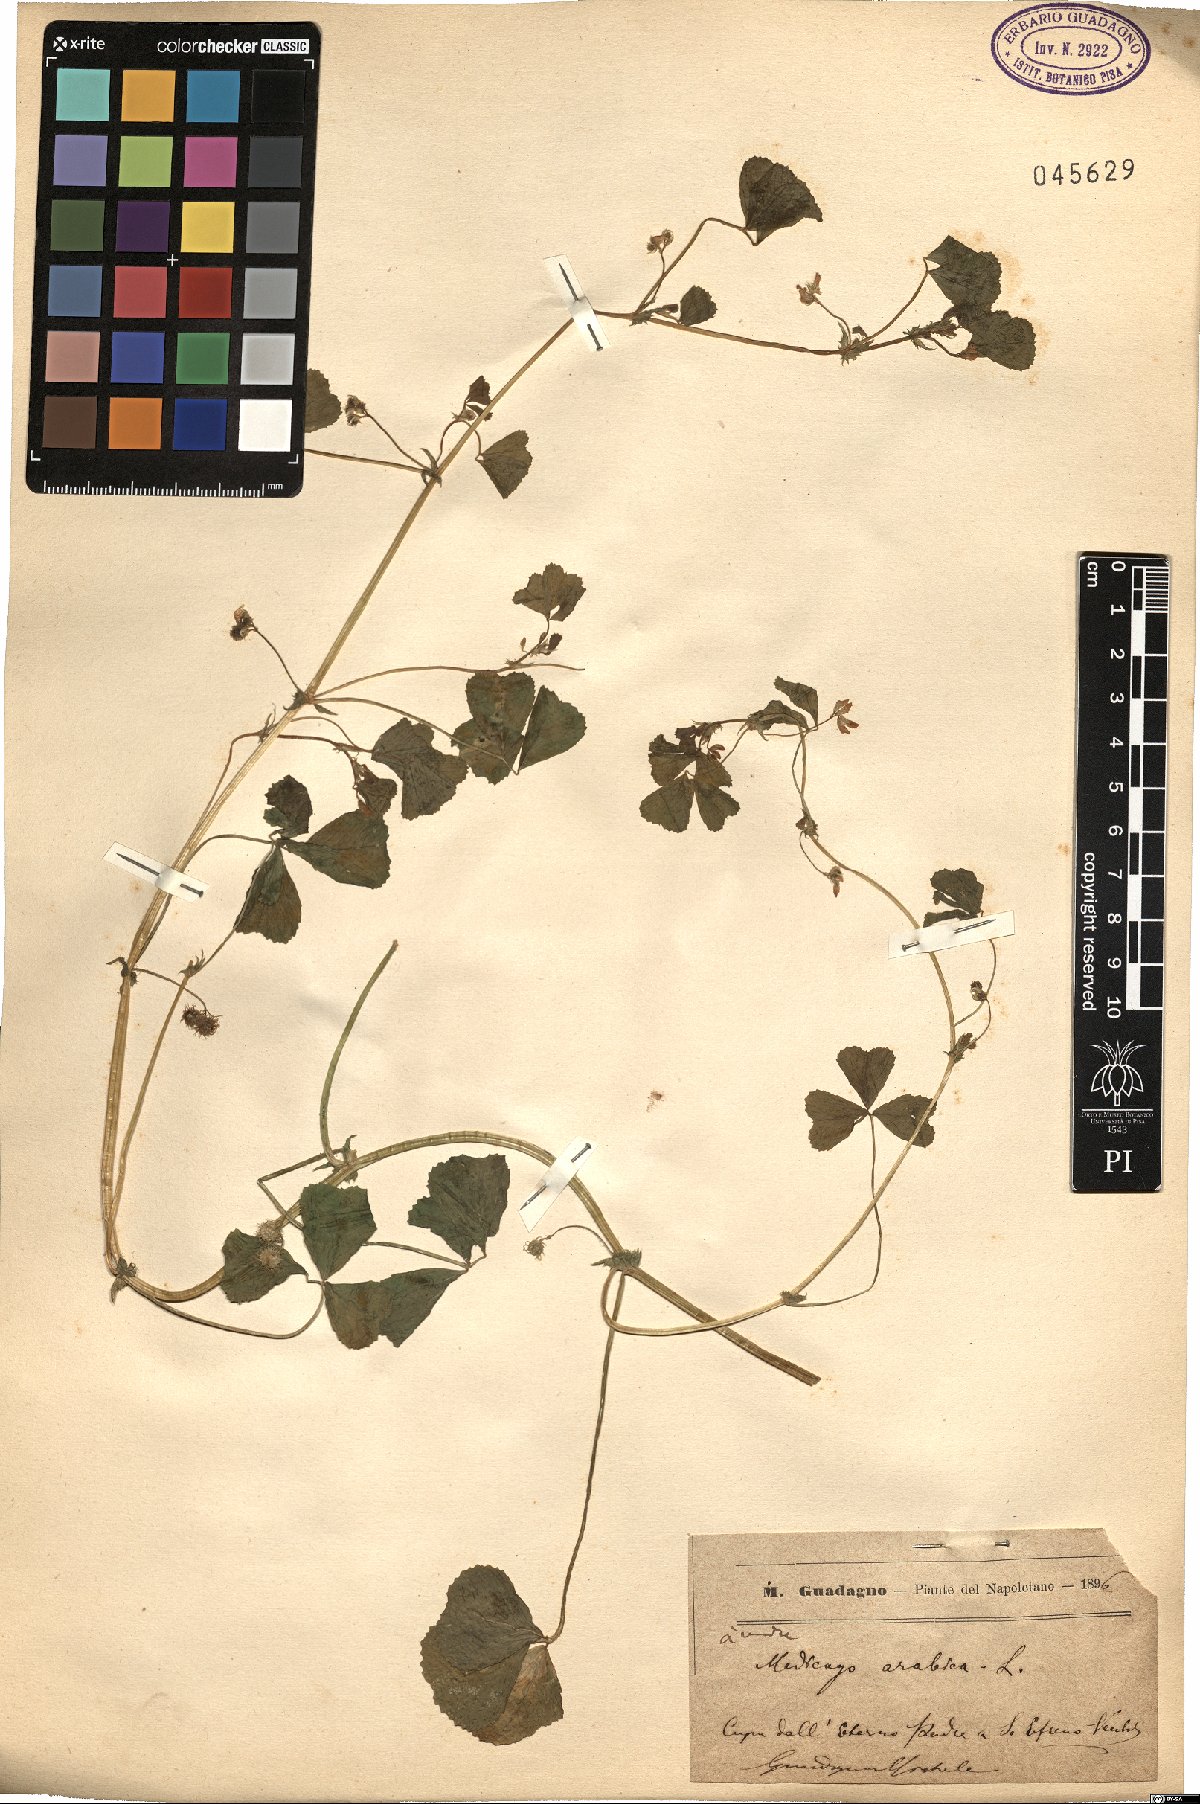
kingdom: Plantae
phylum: Tracheophyta
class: Magnoliopsida
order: Fabales
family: Fabaceae
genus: Medicago
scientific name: Medicago arabica
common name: Spotted medick
